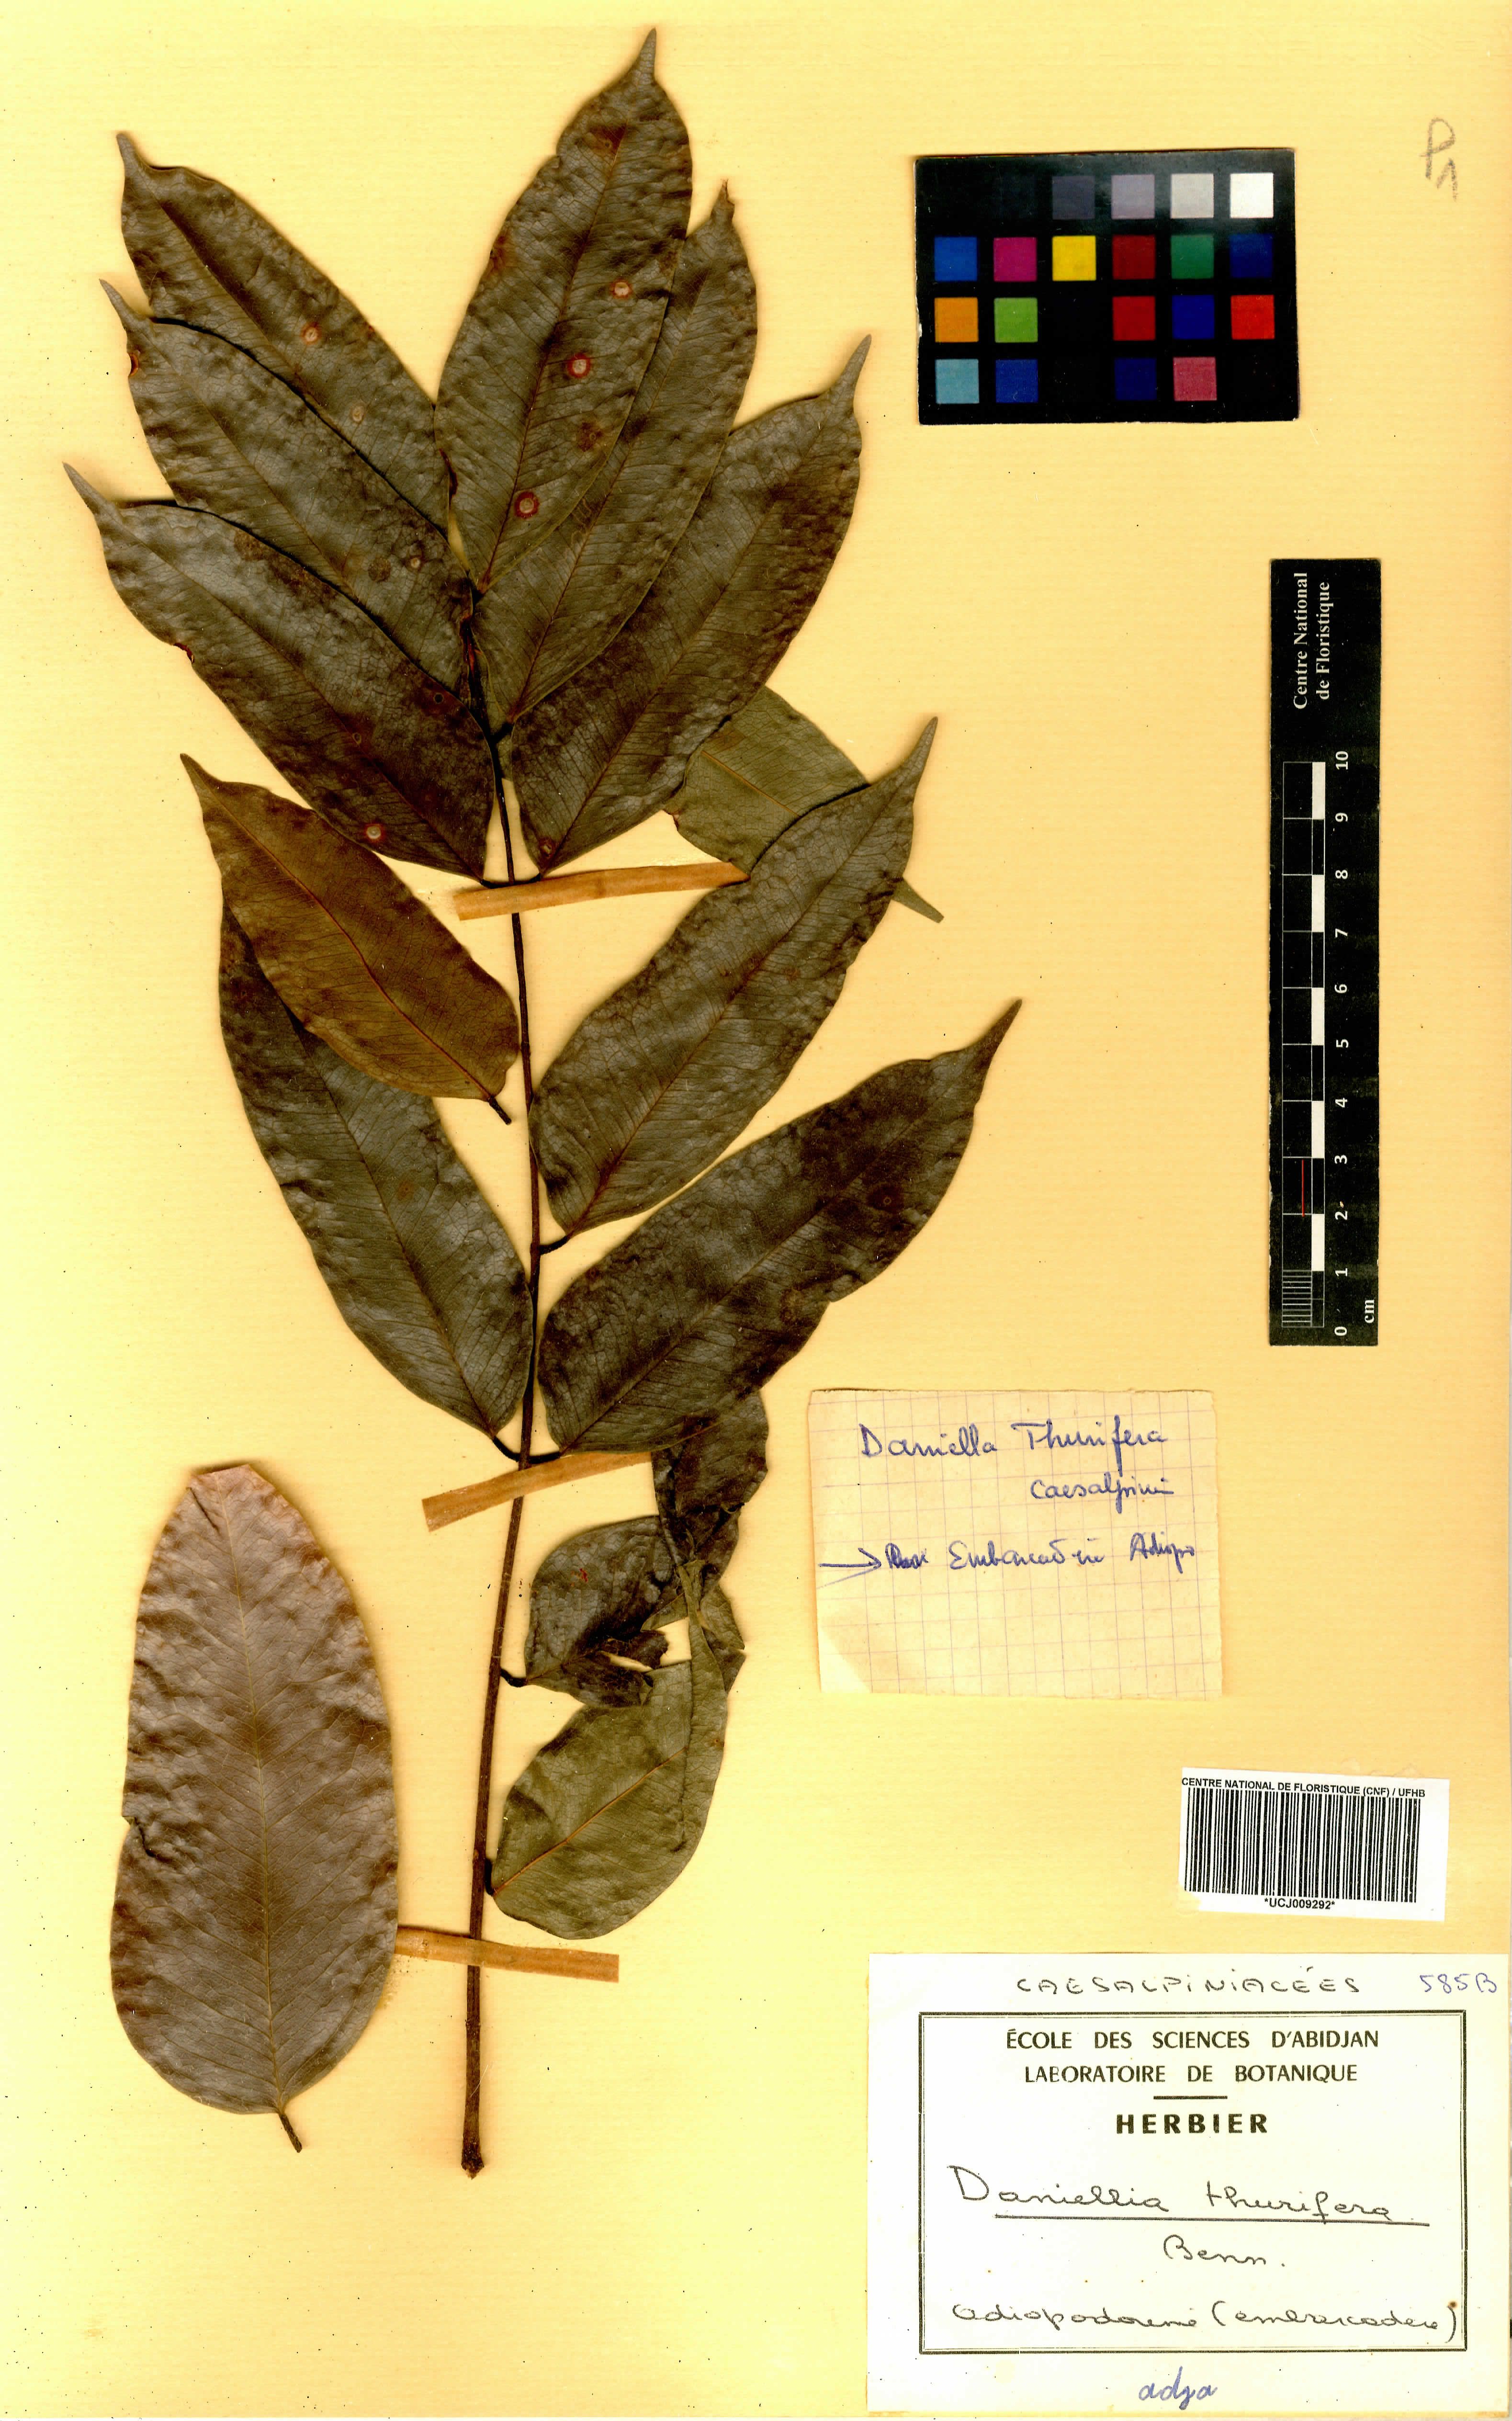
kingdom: Plantae
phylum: Tracheophyta
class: Magnoliopsida
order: Fabales
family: Fabaceae
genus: Daniellia
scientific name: Daniellia thurifera
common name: Sudan copal
